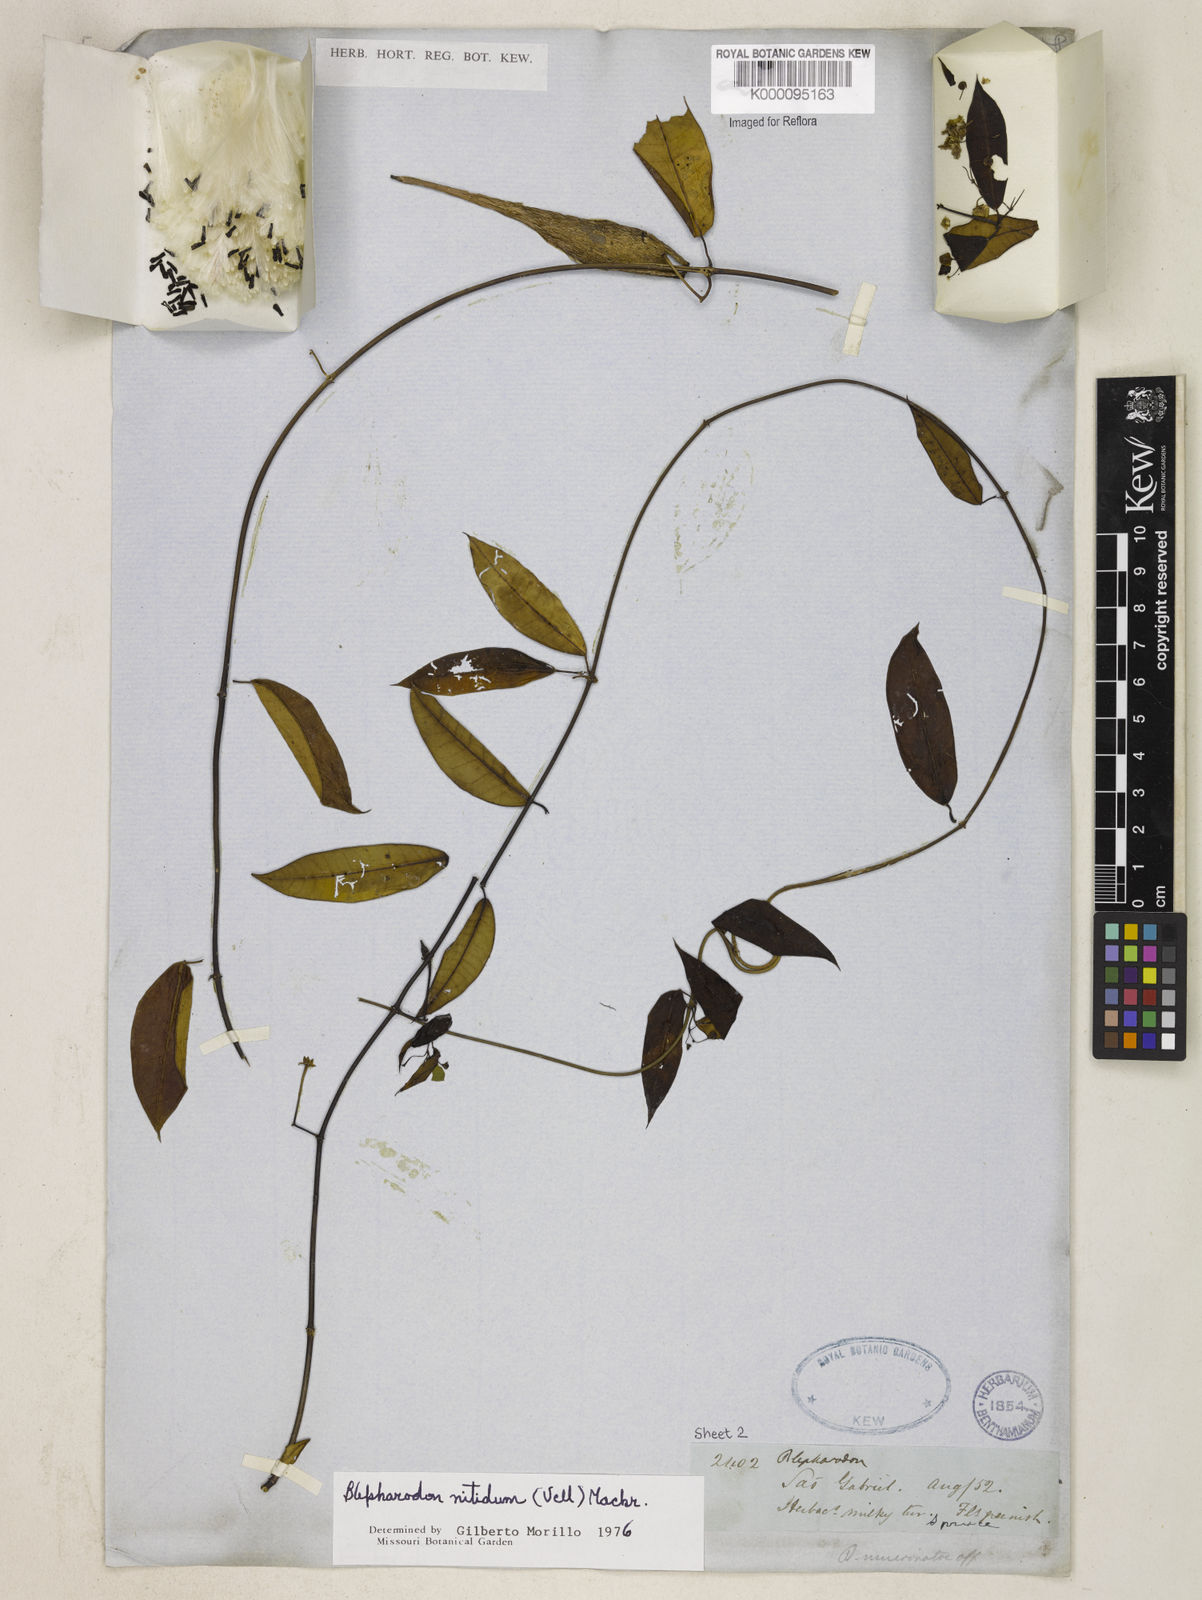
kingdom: Plantae
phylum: Tracheophyta
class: Magnoliopsida
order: Gentianales
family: Apocynaceae
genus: Blepharodon
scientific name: Blepharodon pictum
